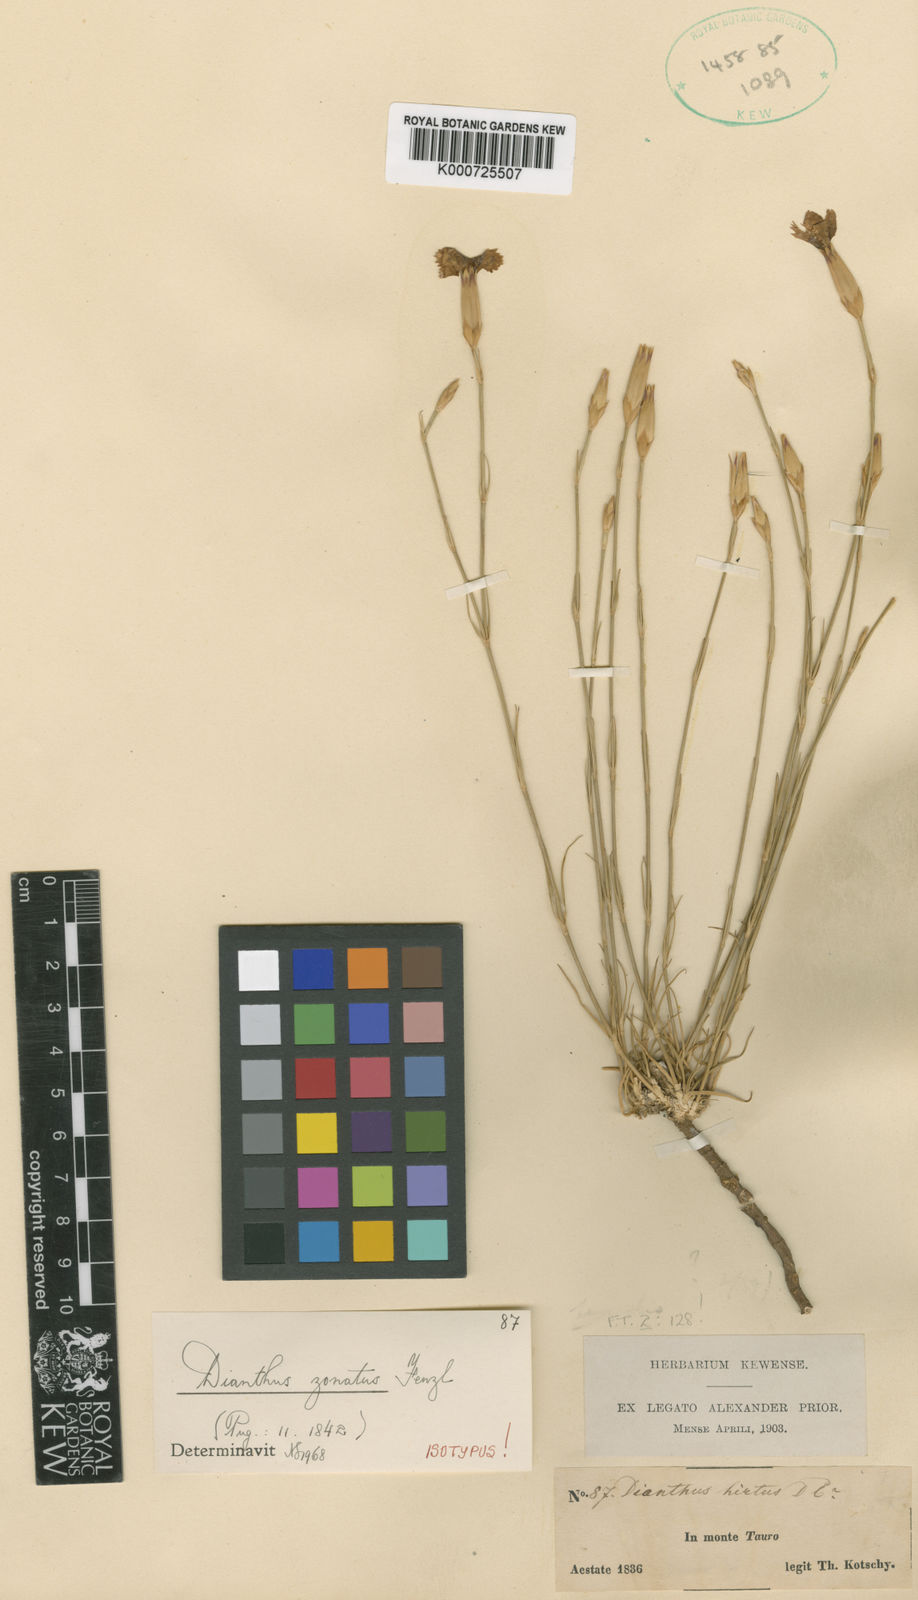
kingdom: Plantae
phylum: Tracheophyta
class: Magnoliopsida
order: Caryophyllales
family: Caryophyllaceae
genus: Dianthus
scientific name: Dianthus zonatus
